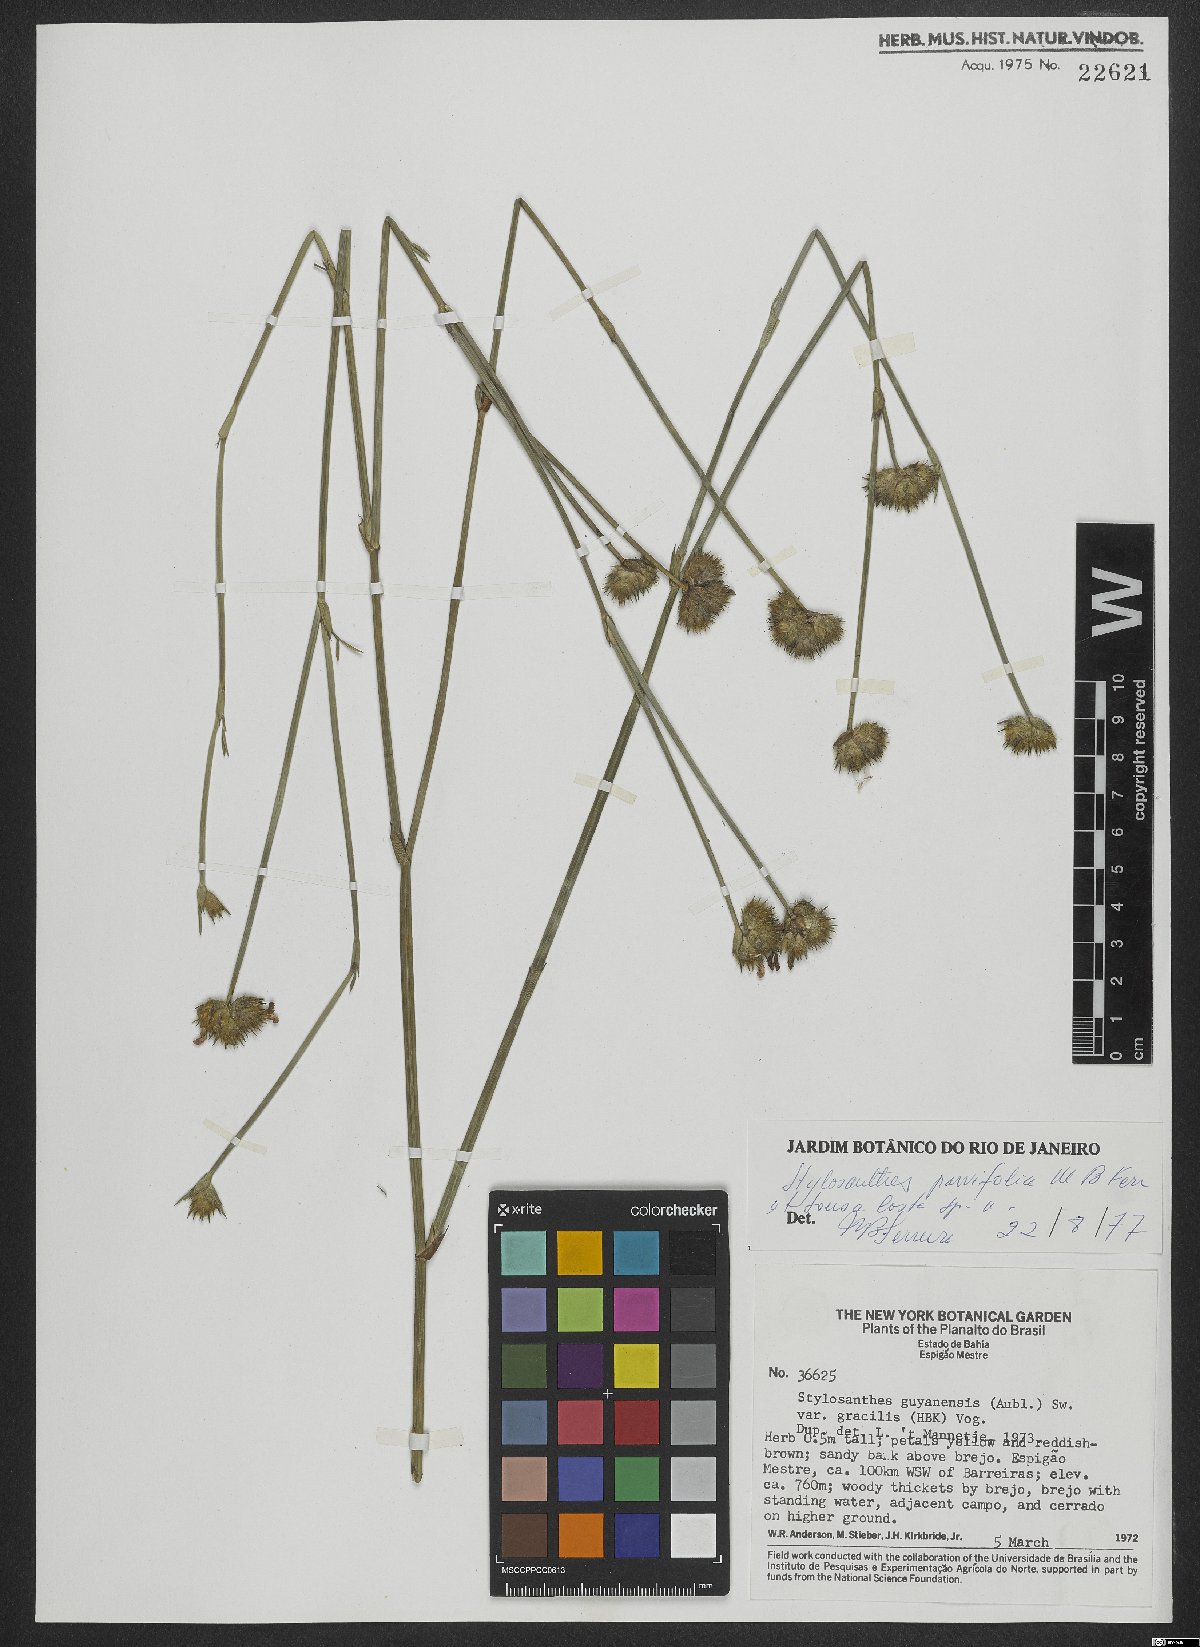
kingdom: Plantae
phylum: Tracheophyta
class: Magnoliopsida
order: Fabales
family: Fabaceae
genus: Stylosanthes
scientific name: Stylosanthes
